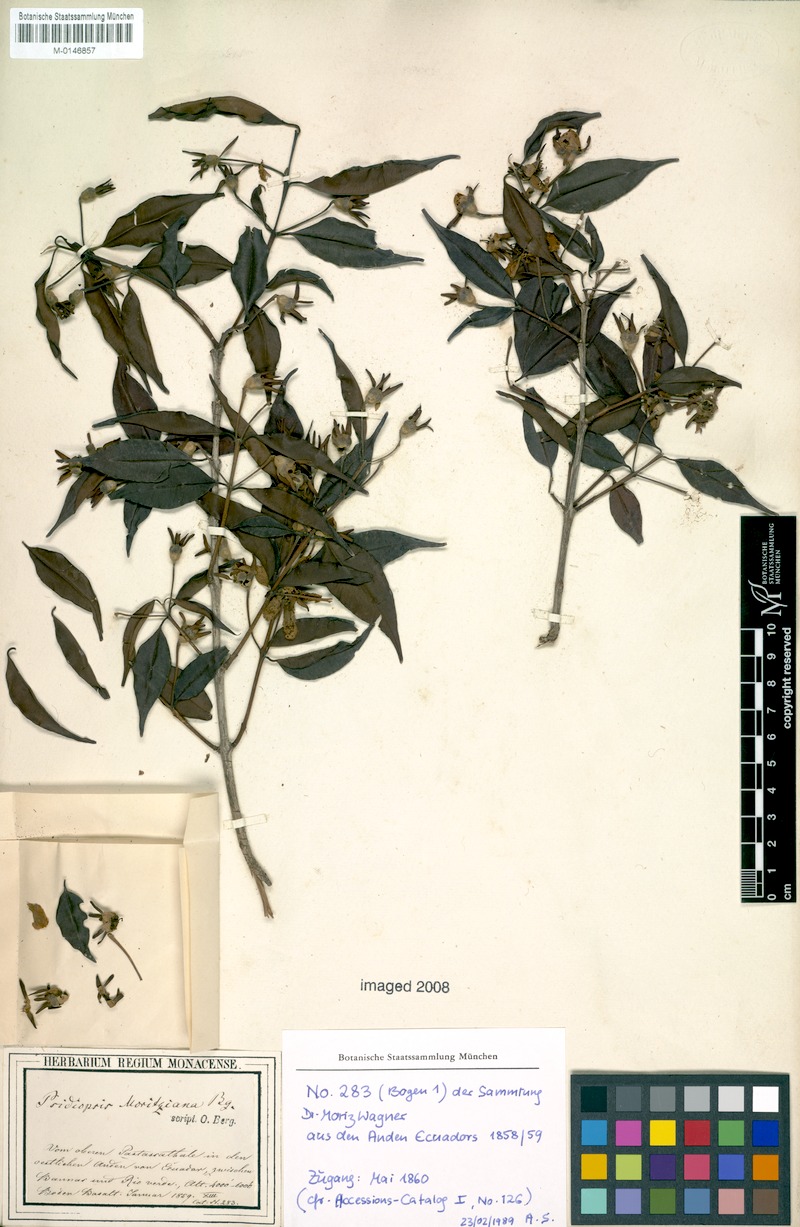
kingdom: Plantae
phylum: Tracheophyta
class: Magnoliopsida
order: Myrtales
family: Myrtaceae
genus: Calycolpus
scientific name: Calycolpus moritzianus
